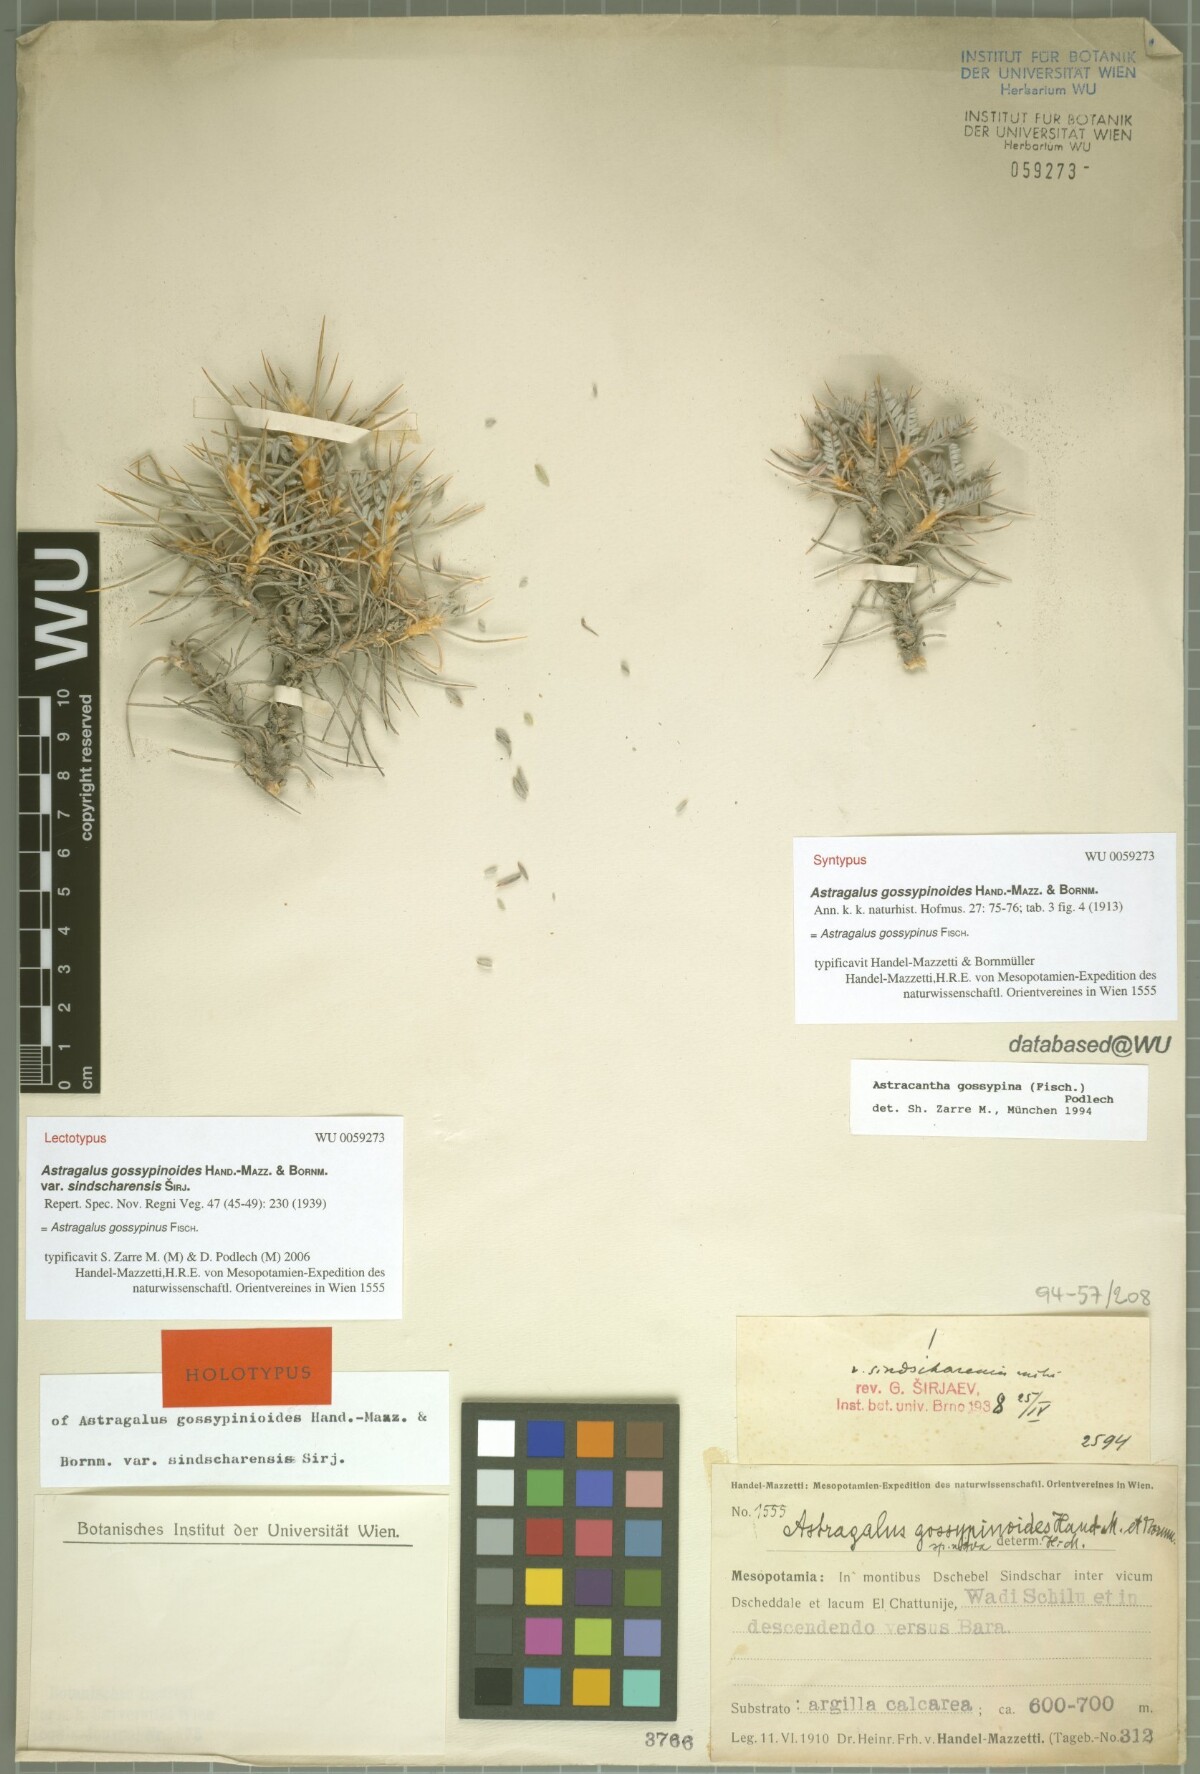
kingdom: Plantae
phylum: Tracheophyta
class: Magnoliopsida
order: Fabales
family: Fabaceae
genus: Astragalus
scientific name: Astragalus gossypinus
